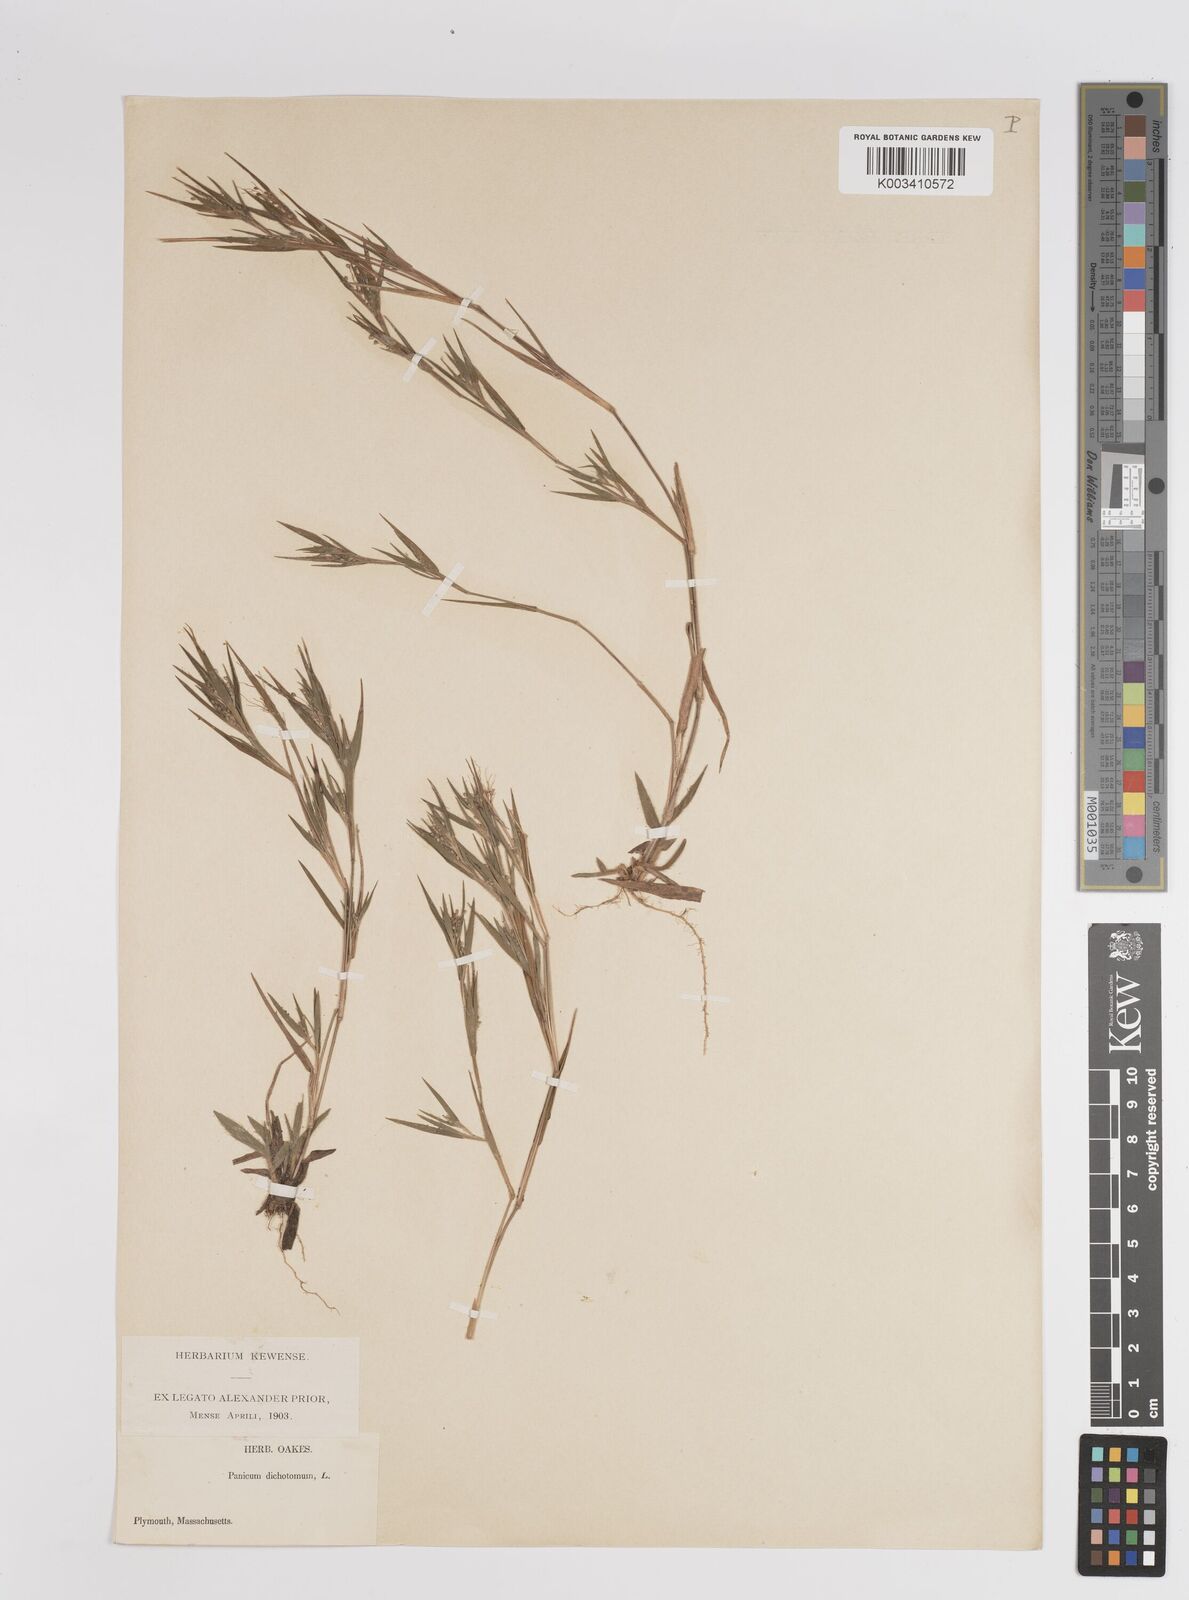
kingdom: Plantae
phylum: Tracheophyta
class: Liliopsida
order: Poales
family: Poaceae
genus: Dichanthelium
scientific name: Dichanthelium dichotomum
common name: Cypress panicgrass
